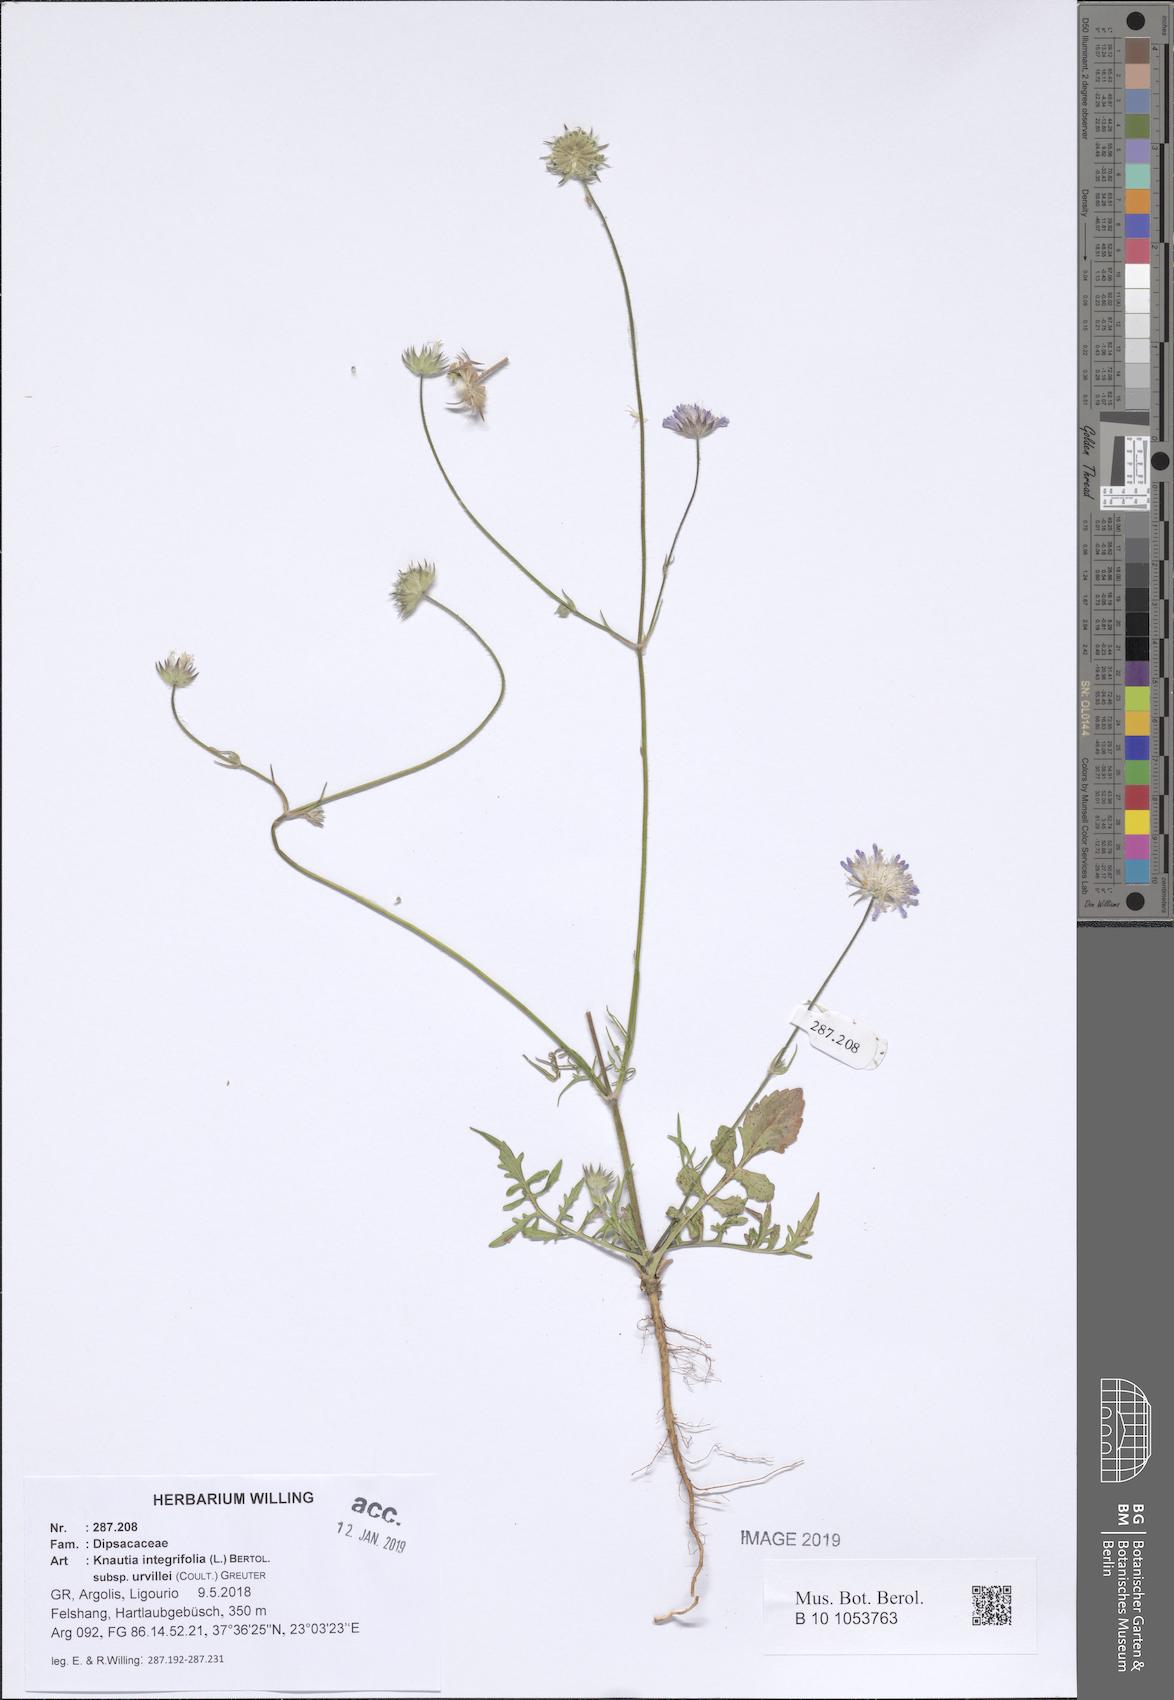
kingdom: Plantae
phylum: Tracheophyta
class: Magnoliopsida
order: Dipsacales
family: Caprifoliaceae
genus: Knautia
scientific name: Knautia integrifolia
